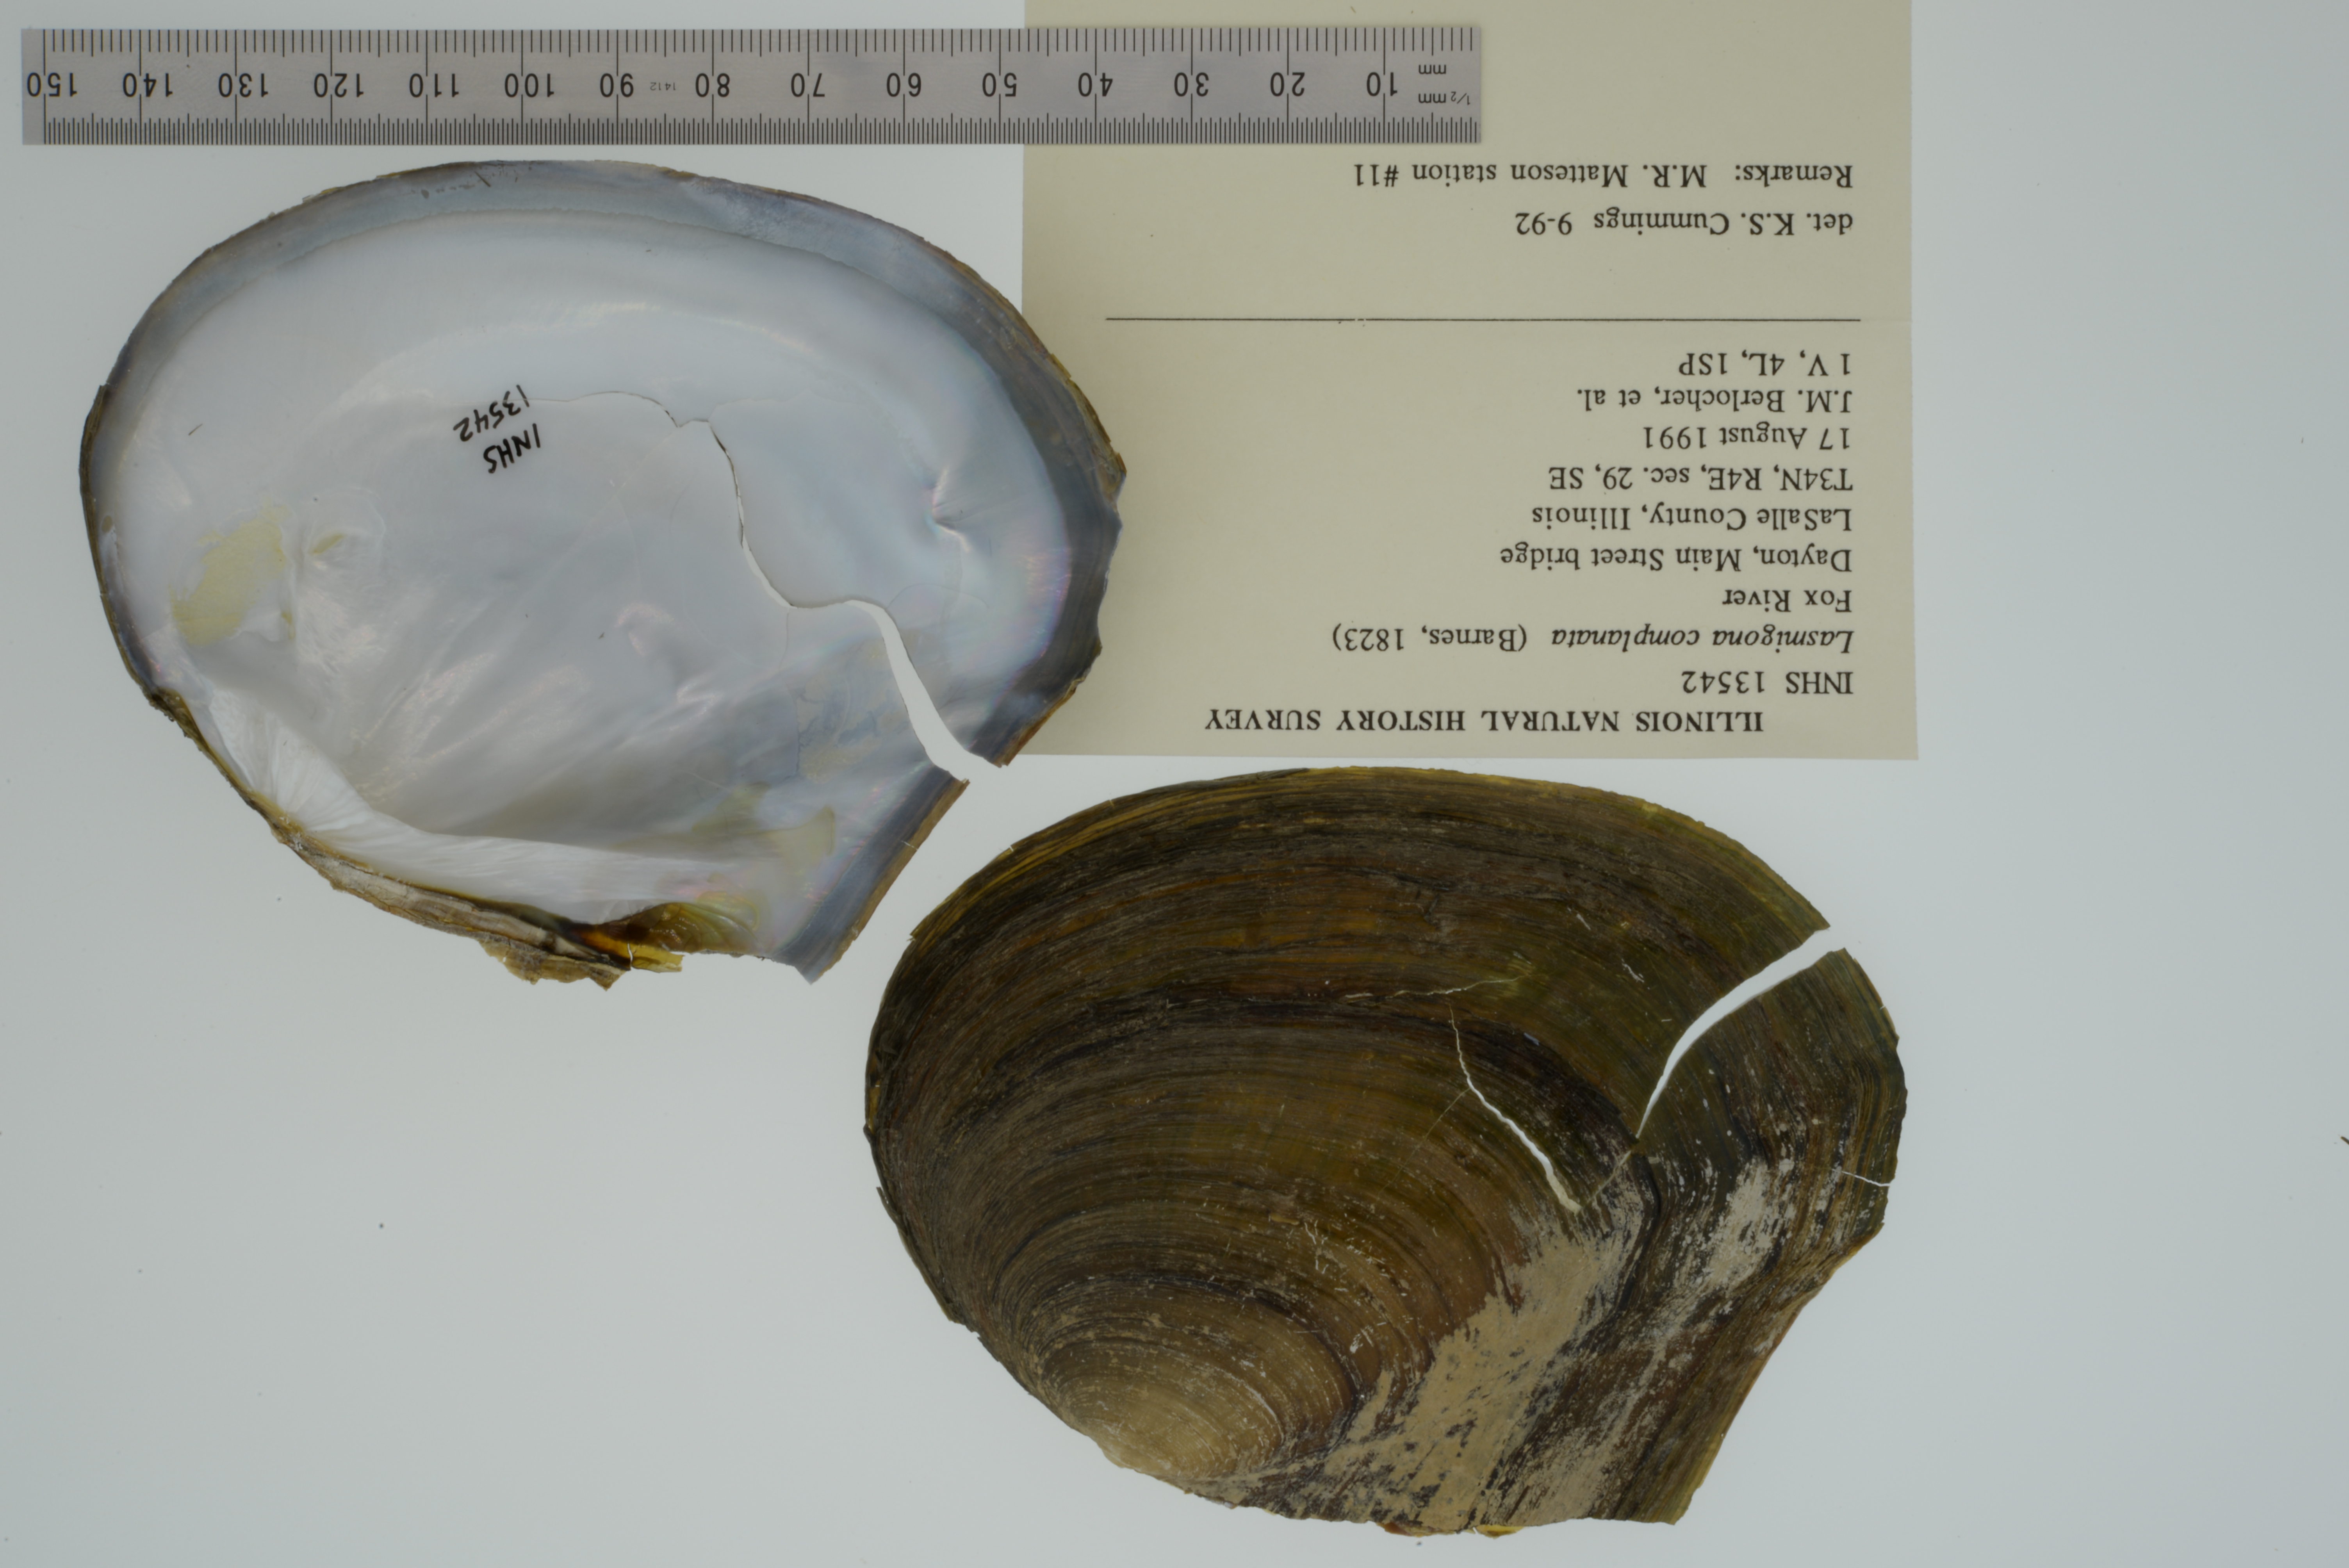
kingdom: Animalia
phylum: Mollusca
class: Bivalvia
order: Unionida
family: Unionidae
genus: Lasmigona
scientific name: Lasmigona complanata
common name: White heelsplitter
